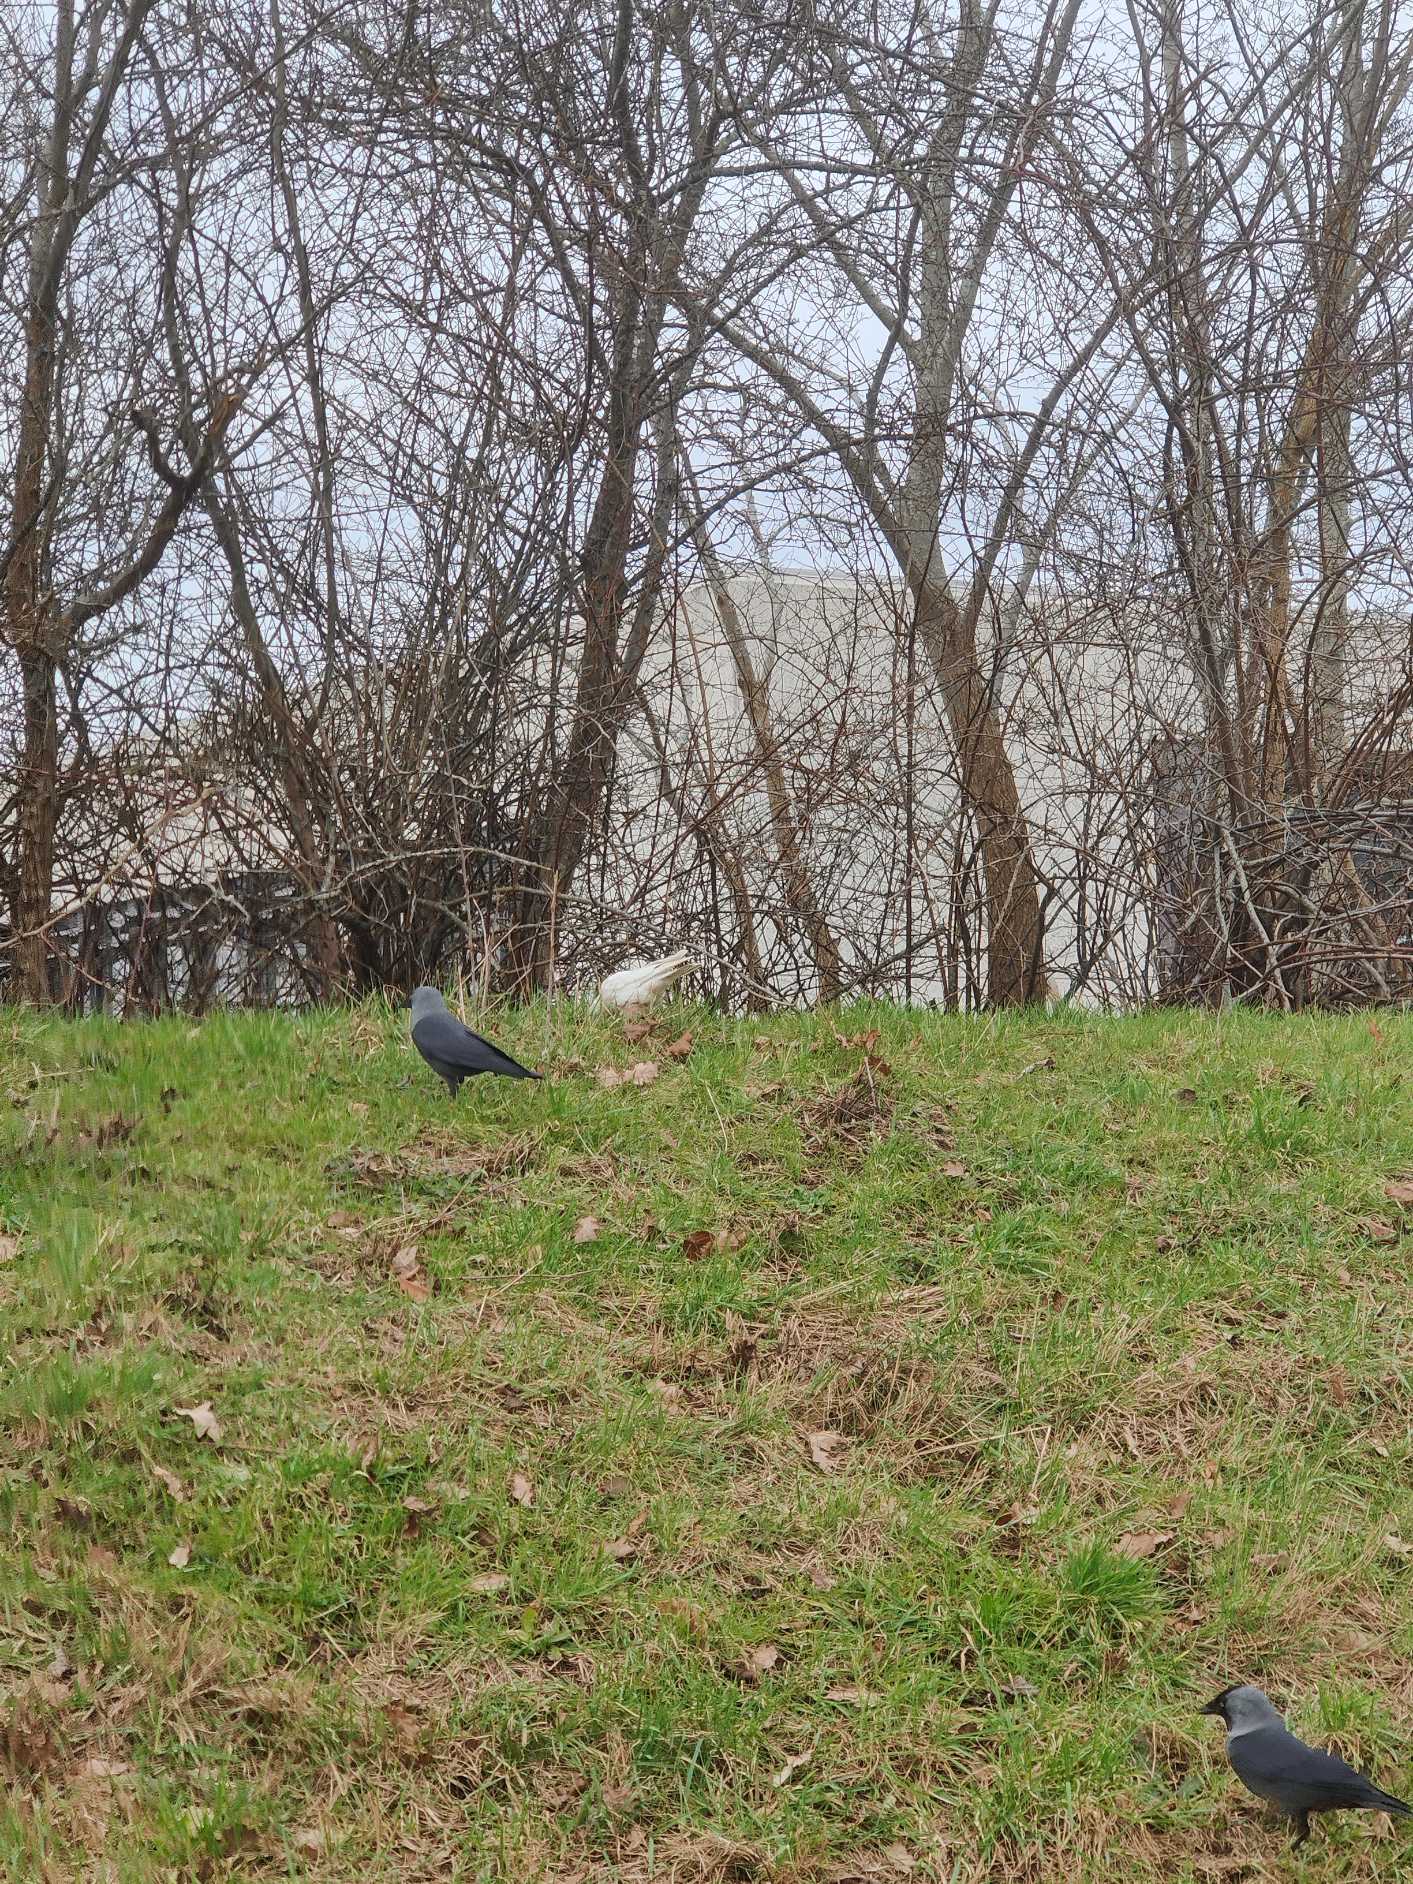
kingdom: Animalia
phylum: Chordata
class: Aves
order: Passeriformes
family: Corvidae
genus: Coloeus
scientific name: Coloeus monedula
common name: Allike
